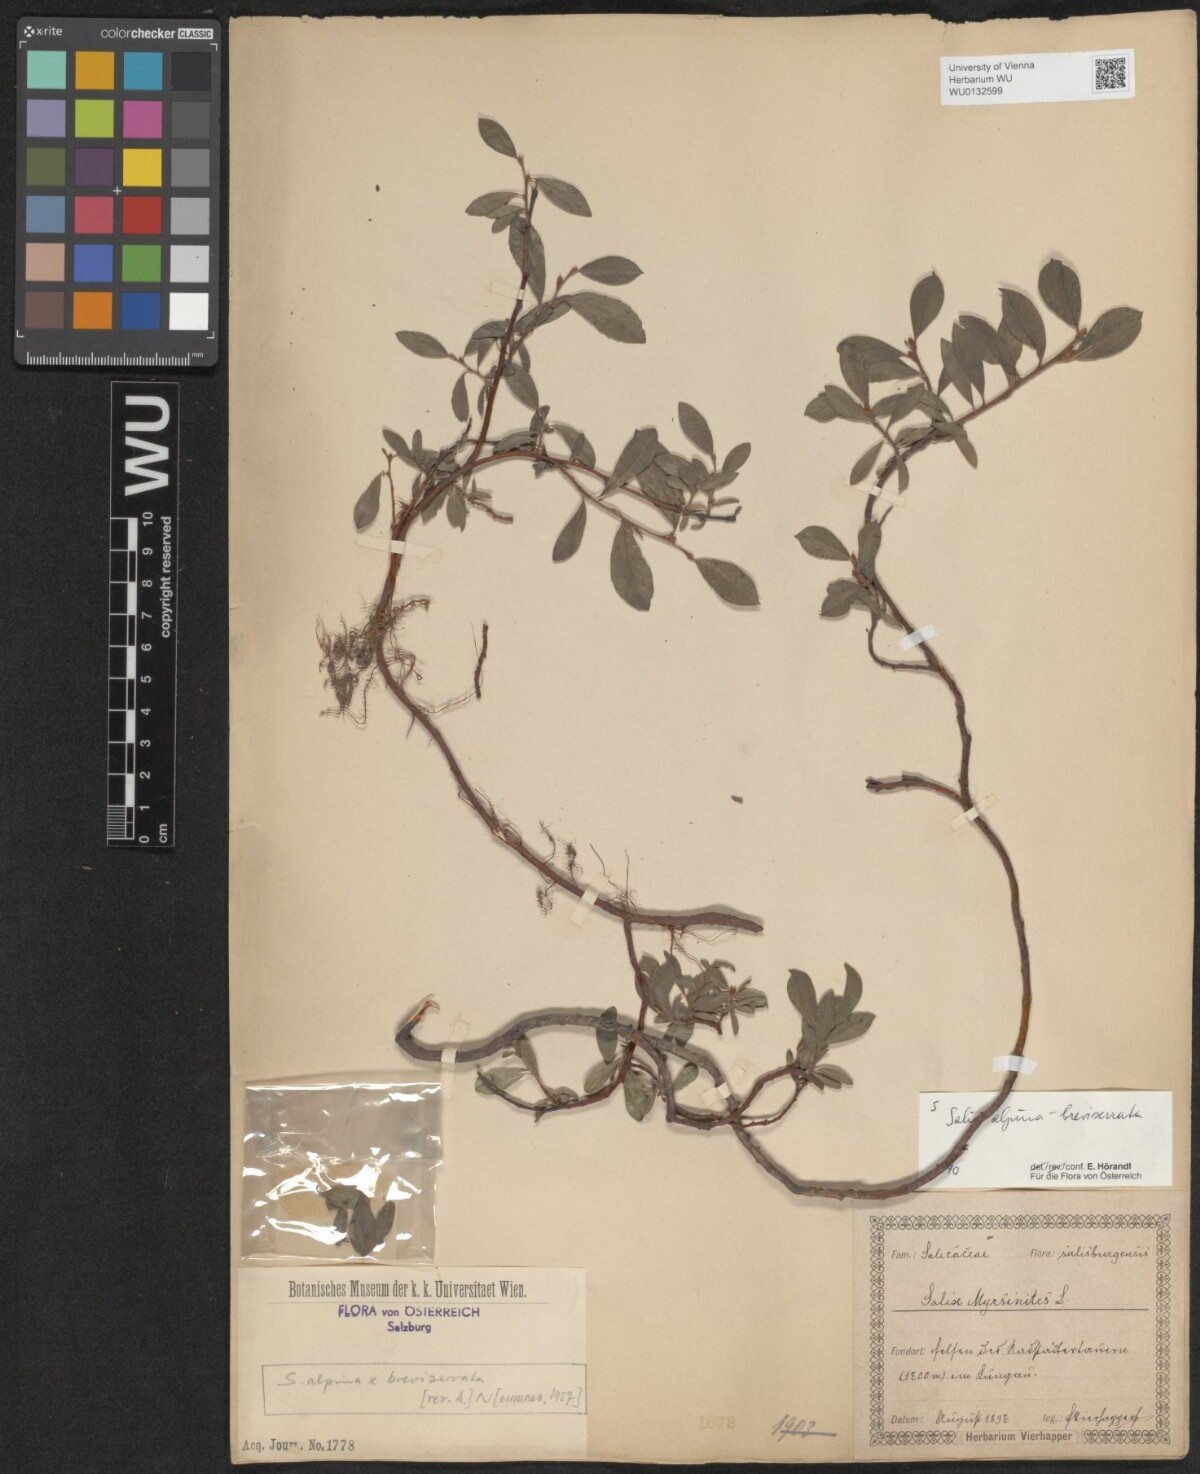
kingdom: Plantae
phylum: Tracheophyta
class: Magnoliopsida
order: Malpighiales
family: Salicaceae
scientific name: Salicaceae
